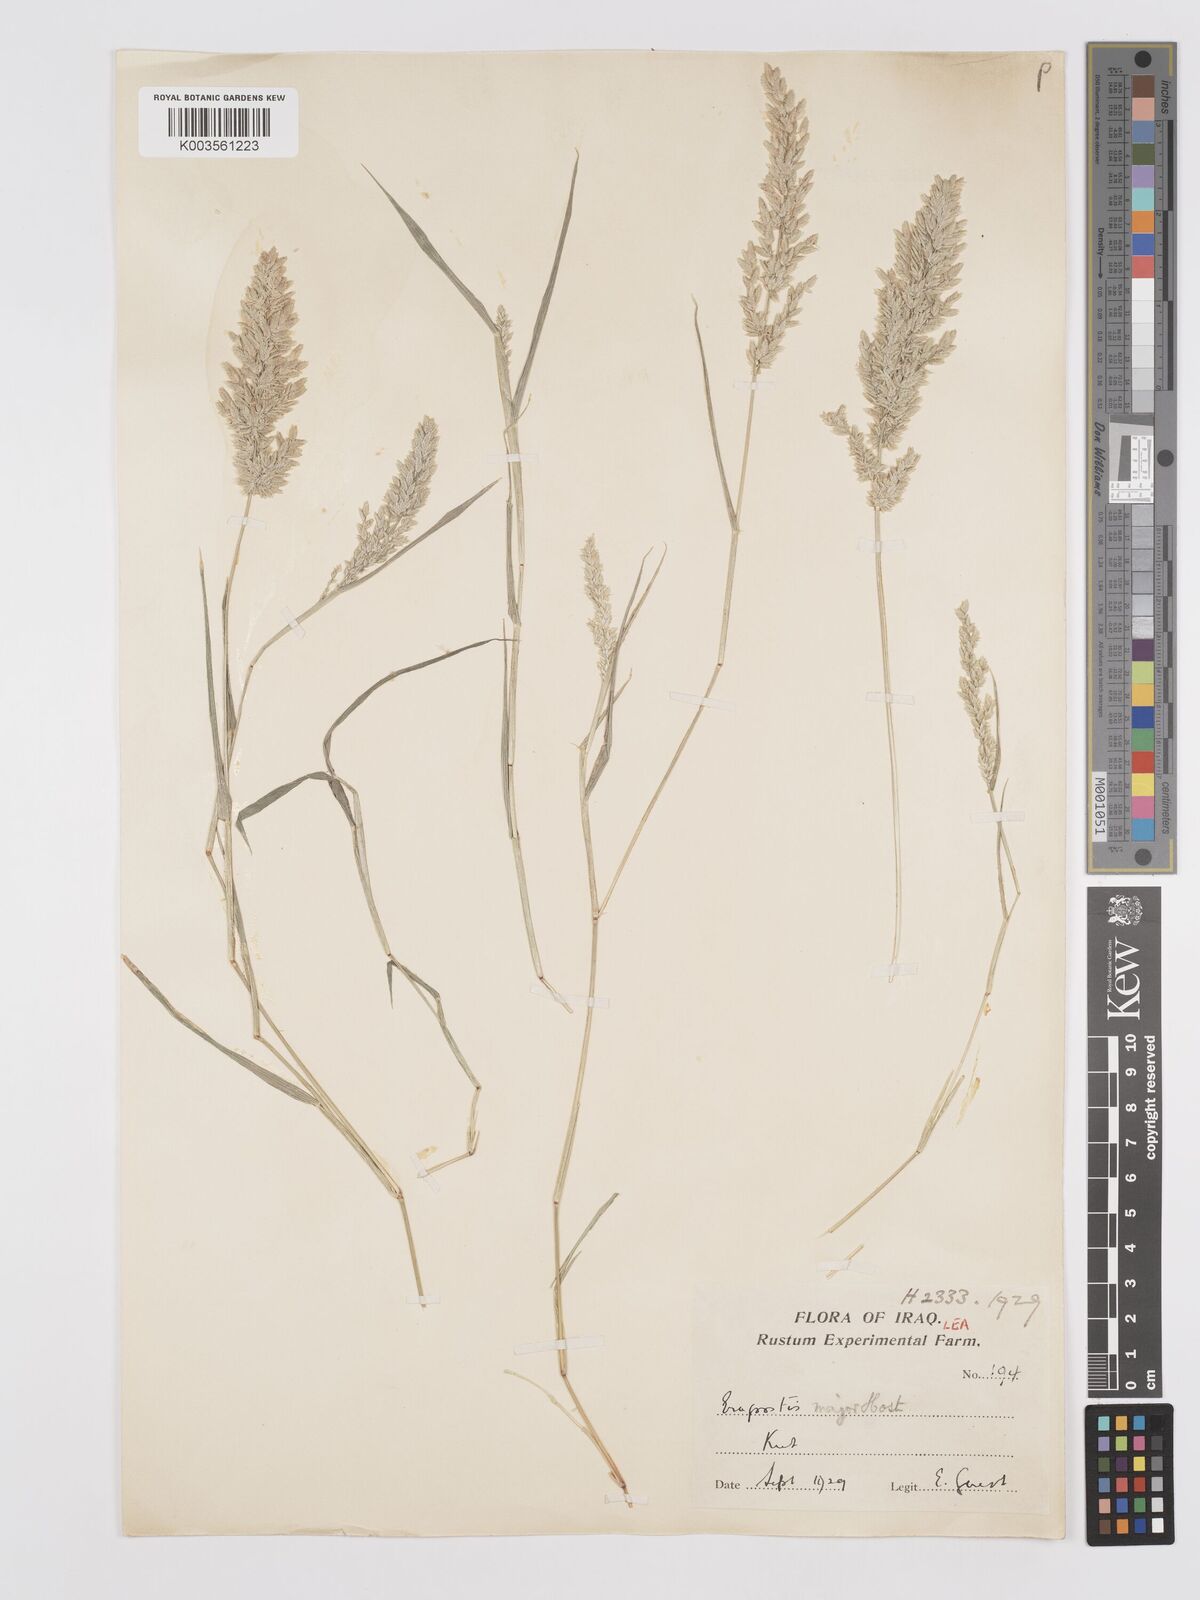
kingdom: Plantae
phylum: Tracheophyta
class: Liliopsida
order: Poales
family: Poaceae
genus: Eragrostis
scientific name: Eragrostis cilianensis
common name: Stinkgrass
